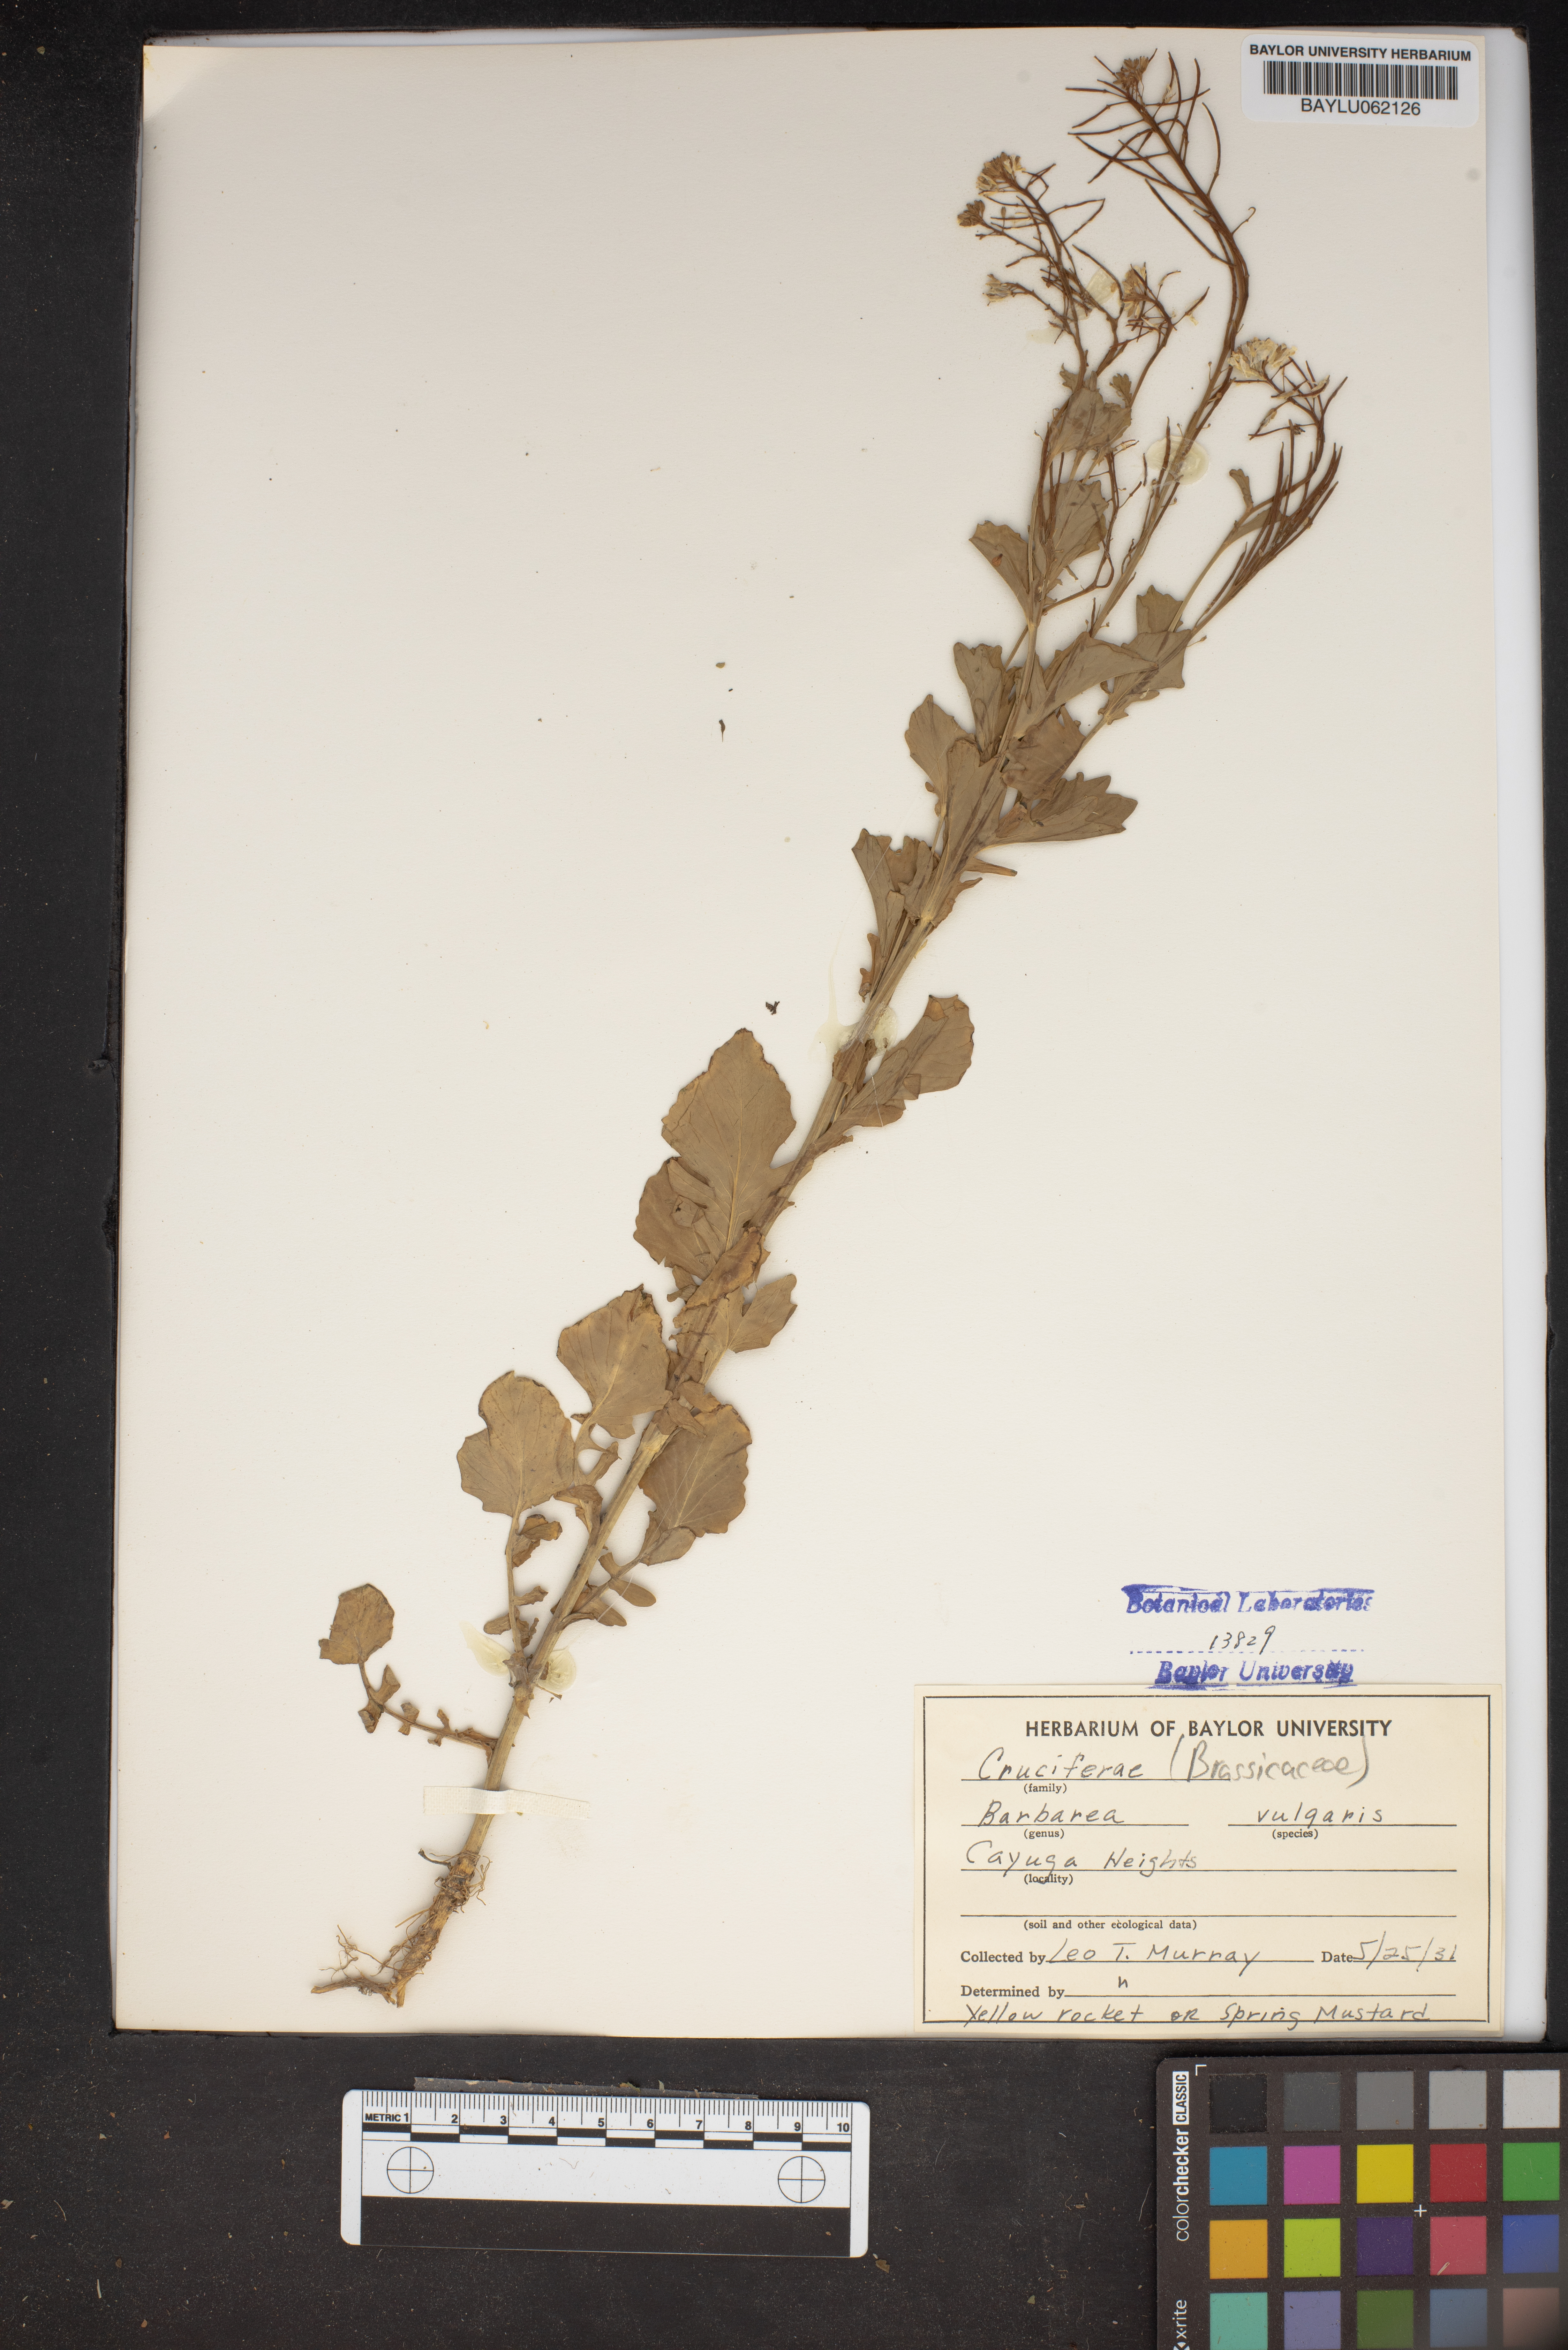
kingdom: Plantae
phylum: Tracheophyta
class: Magnoliopsida
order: Brassicales
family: Brassicaceae
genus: Barbarea
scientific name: Barbarea vulgaris
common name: Cressy-greens
